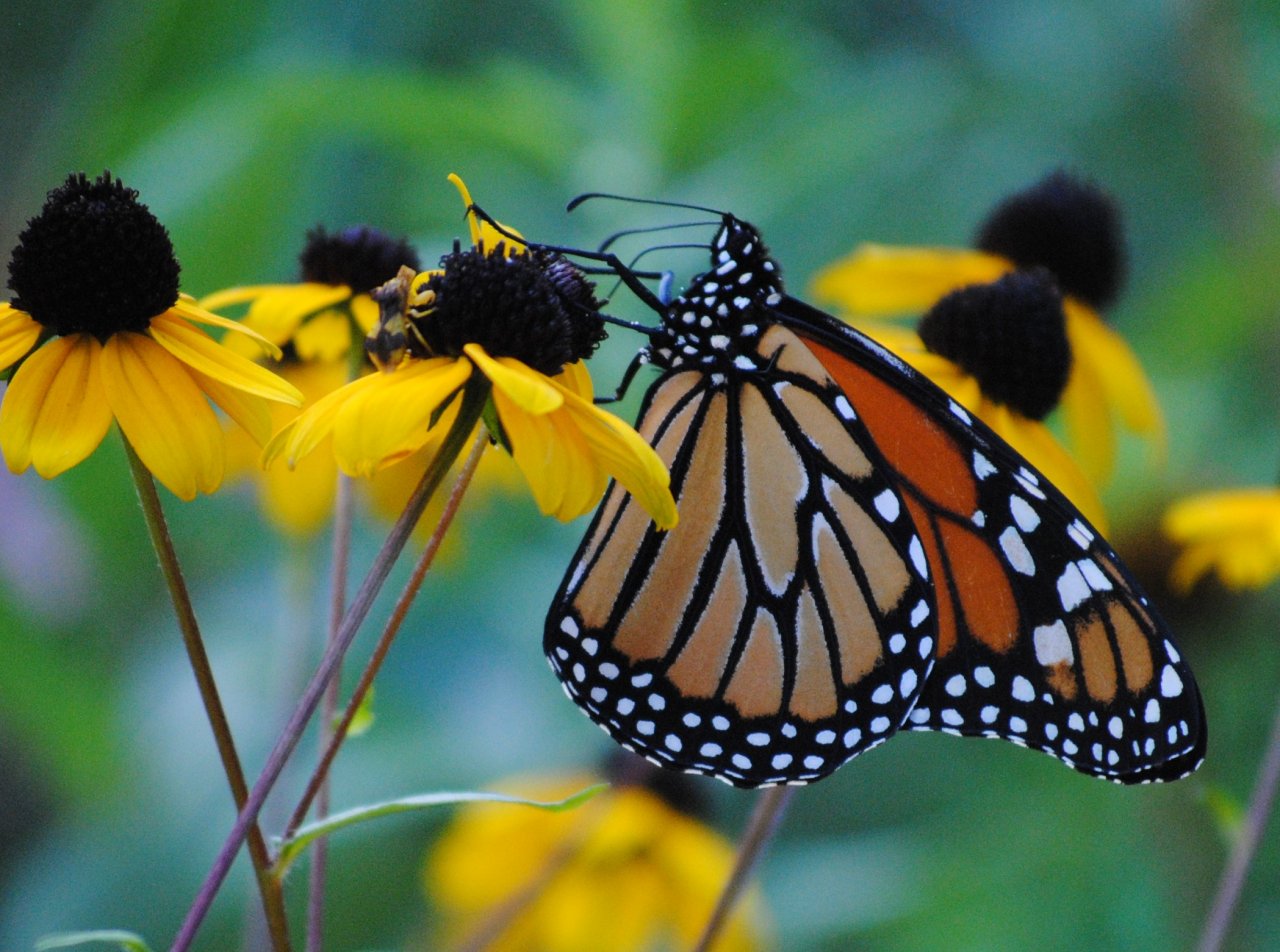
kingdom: Animalia
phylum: Arthropoda
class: Insecta
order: Lepidoptera
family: Nymphalidae
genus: Danaus
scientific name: Danaus plexippus
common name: Monarch
